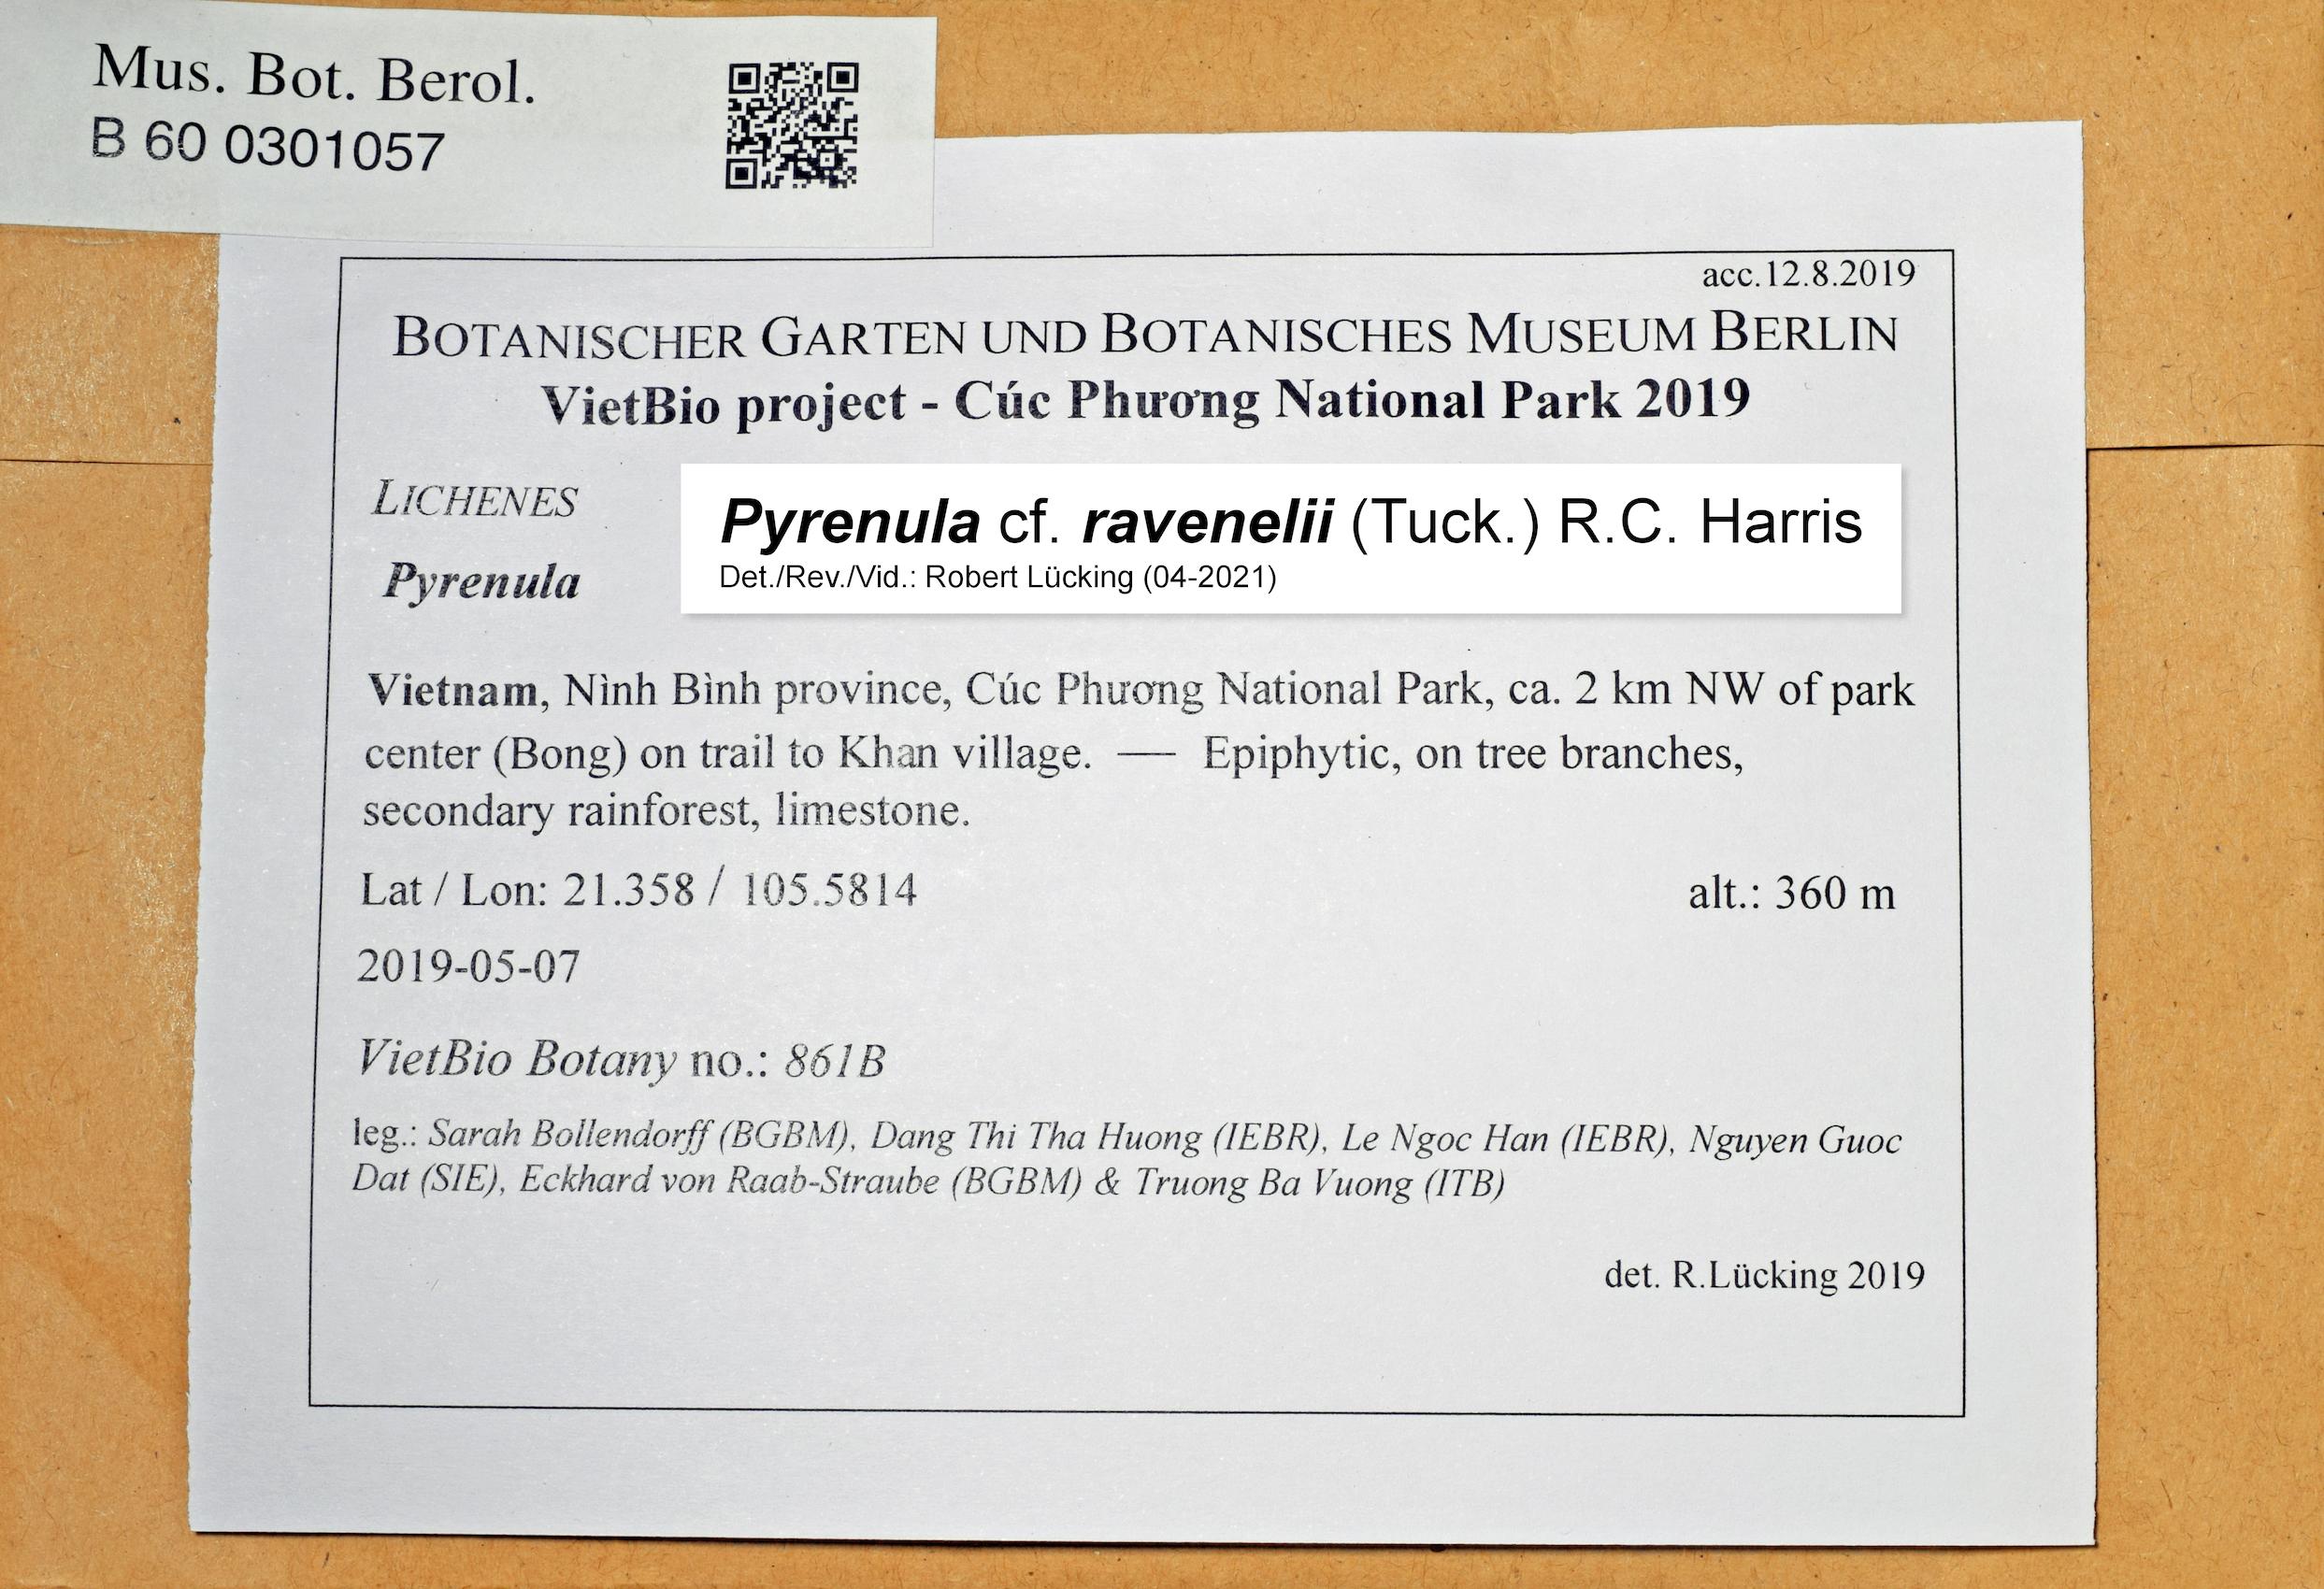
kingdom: Fungi
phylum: Ascomycota
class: Eurotiomycetes
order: Pyrenulales
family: Pyrenulaceae
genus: Pyrenula
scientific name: Pyrenula
